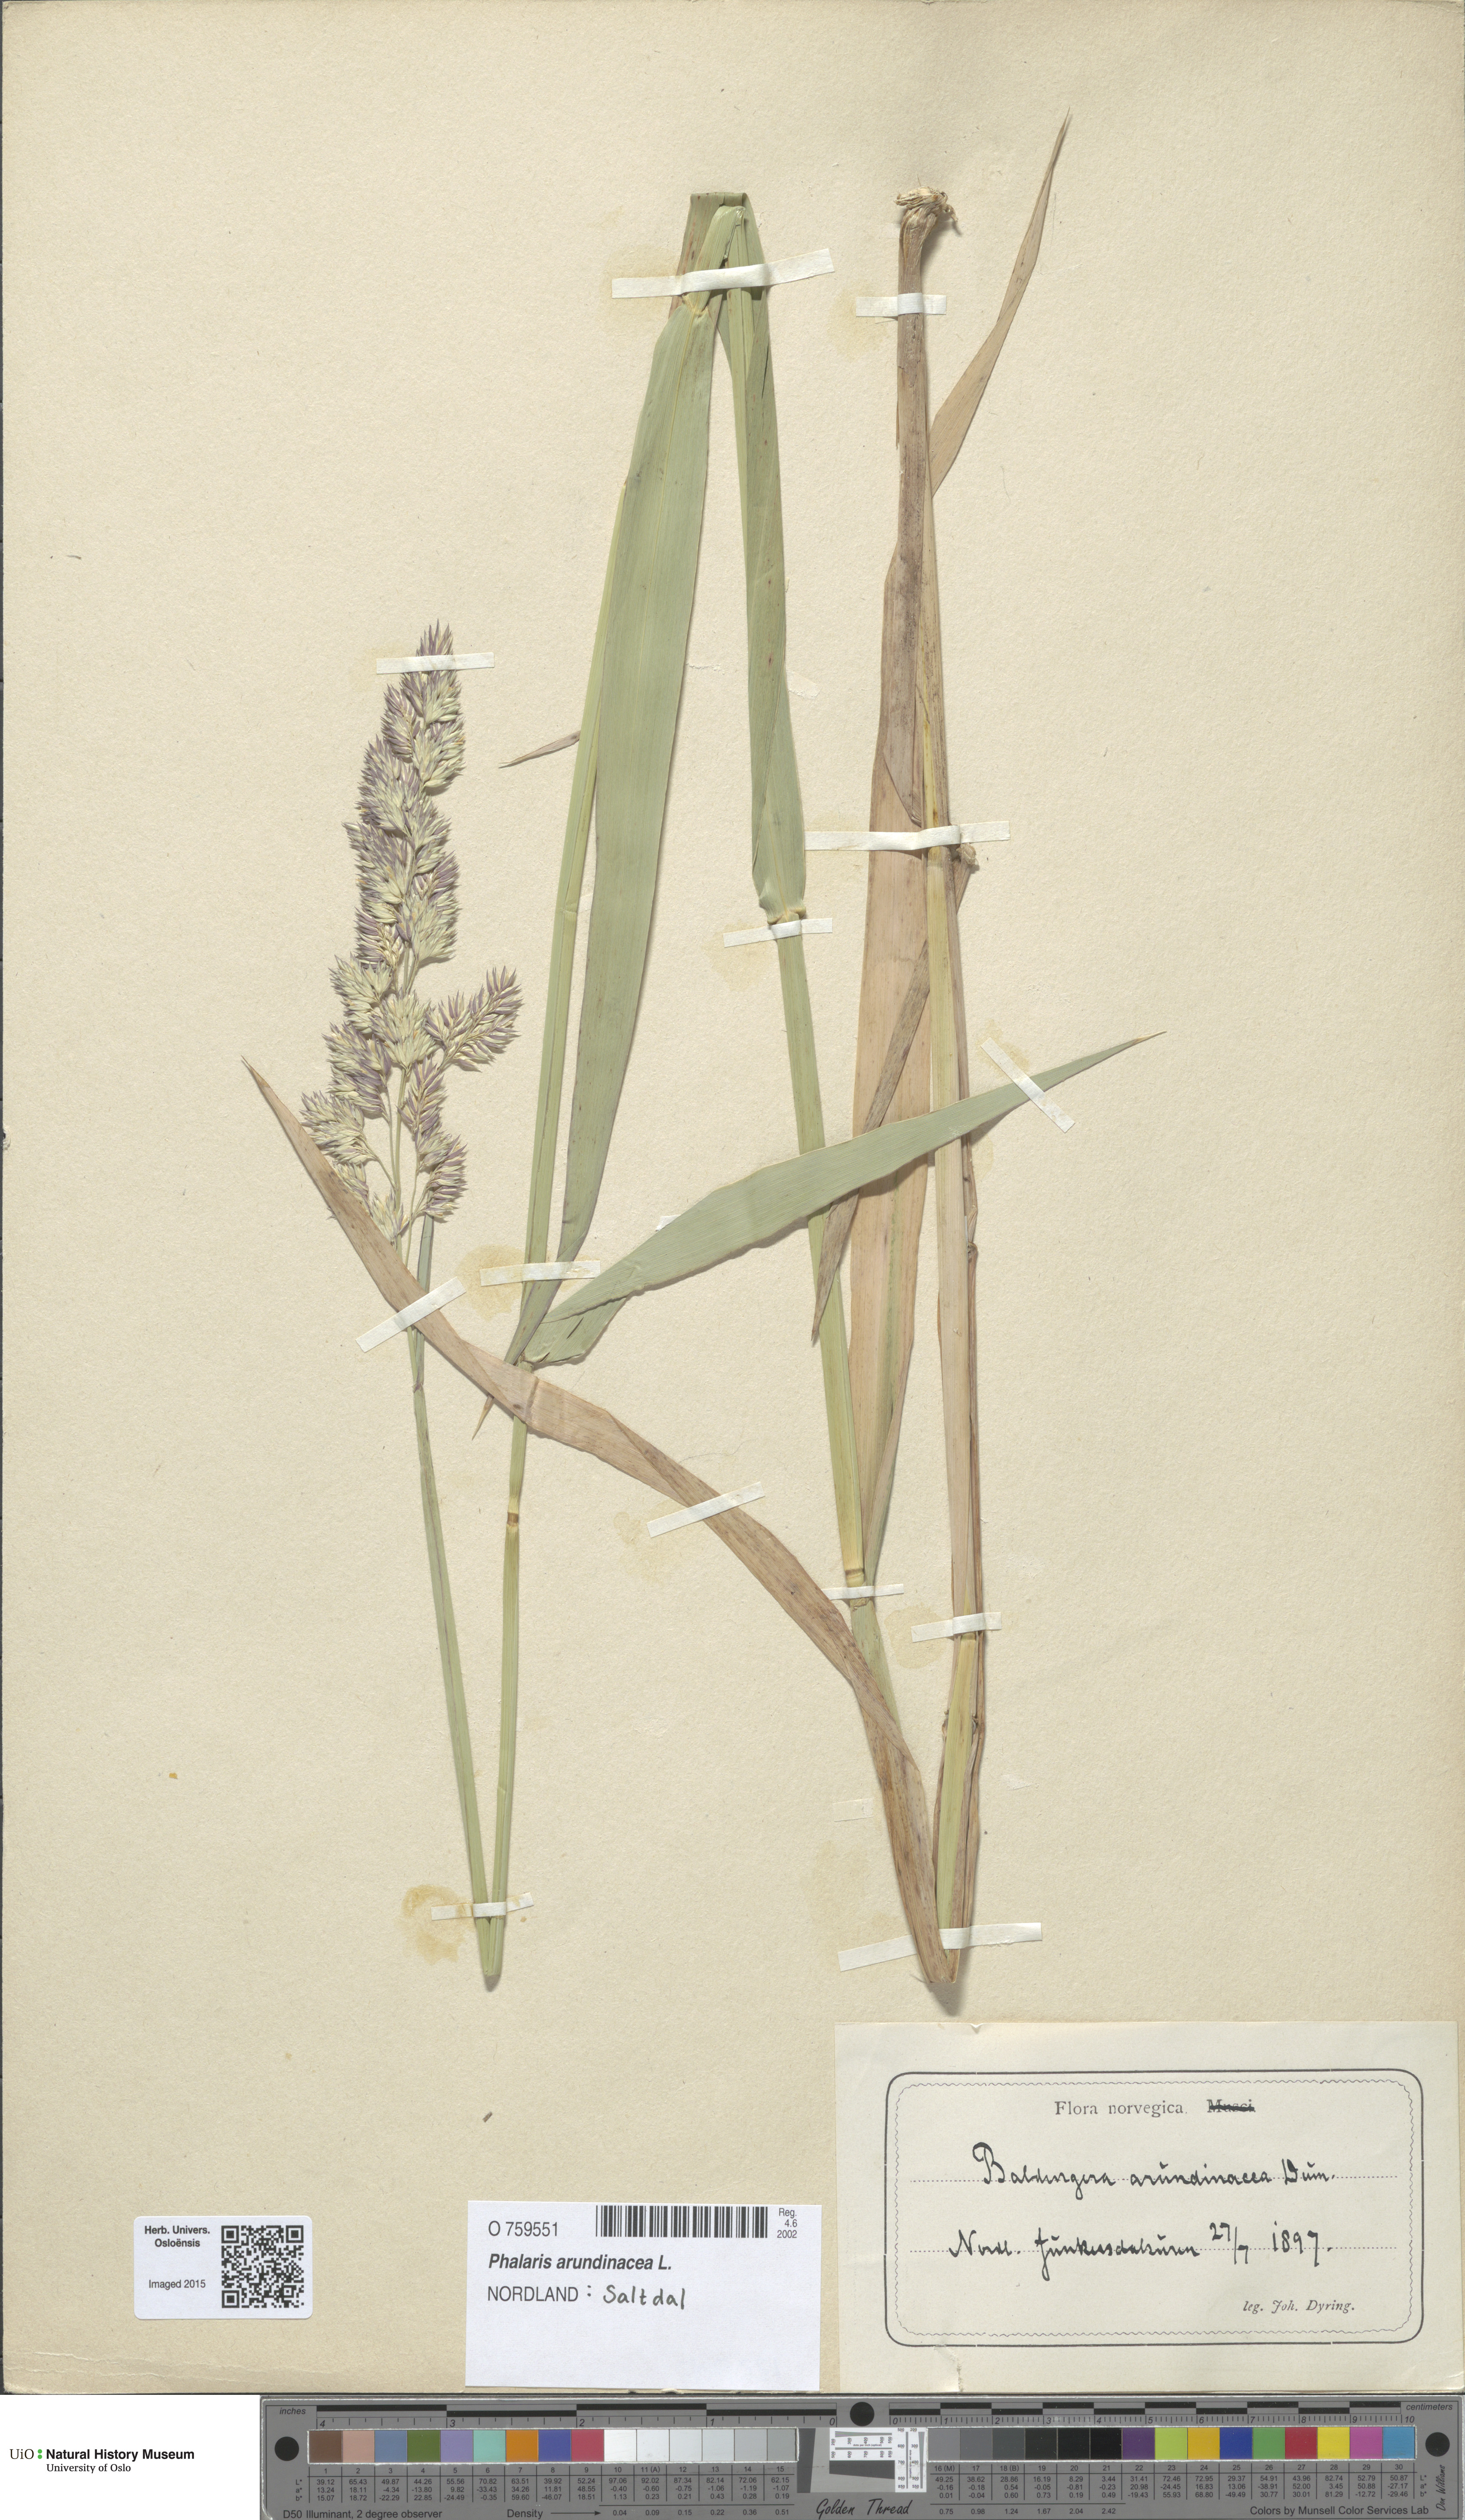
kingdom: Plantae
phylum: Tracheophyta
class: Liliopsida
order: Poales
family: Poaceae
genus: Phalaris
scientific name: Phalaris arundinacea
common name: Reed canary-grass
